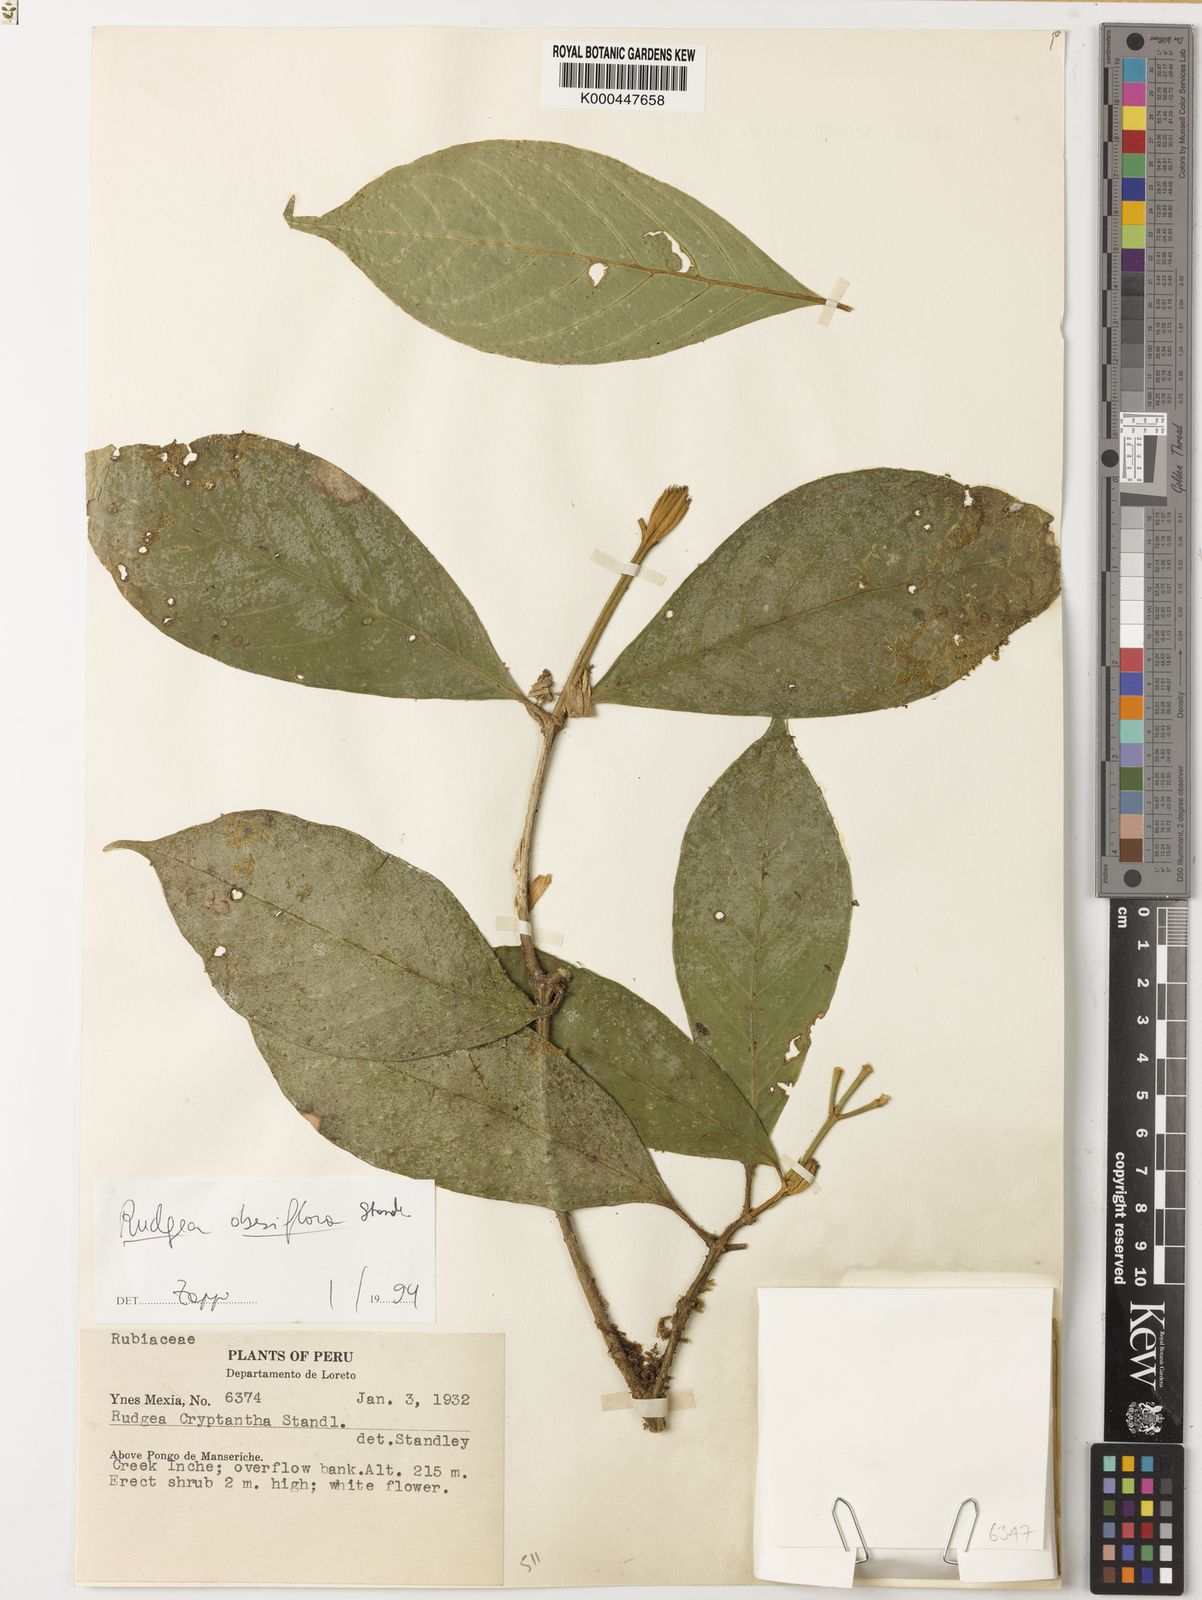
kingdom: Plantae
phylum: Tracheophyta
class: Magnoliopsida
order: Gentianales
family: Rubiaceae
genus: Rudgea
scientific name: Rudgea obesiflora
